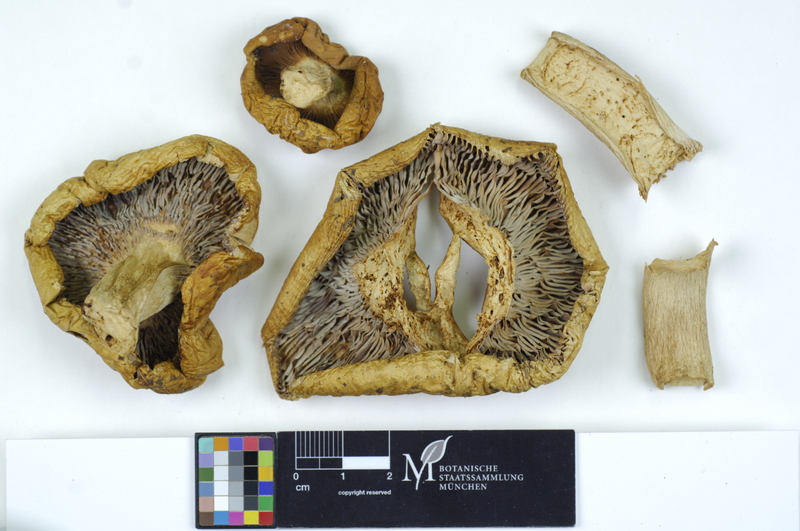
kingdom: Fungi
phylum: Basidiomycota
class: Agaricomycetes
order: Russulales
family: Russulaceae
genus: Russula
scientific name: Russula heterophylla
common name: Greasy green brittlegill
